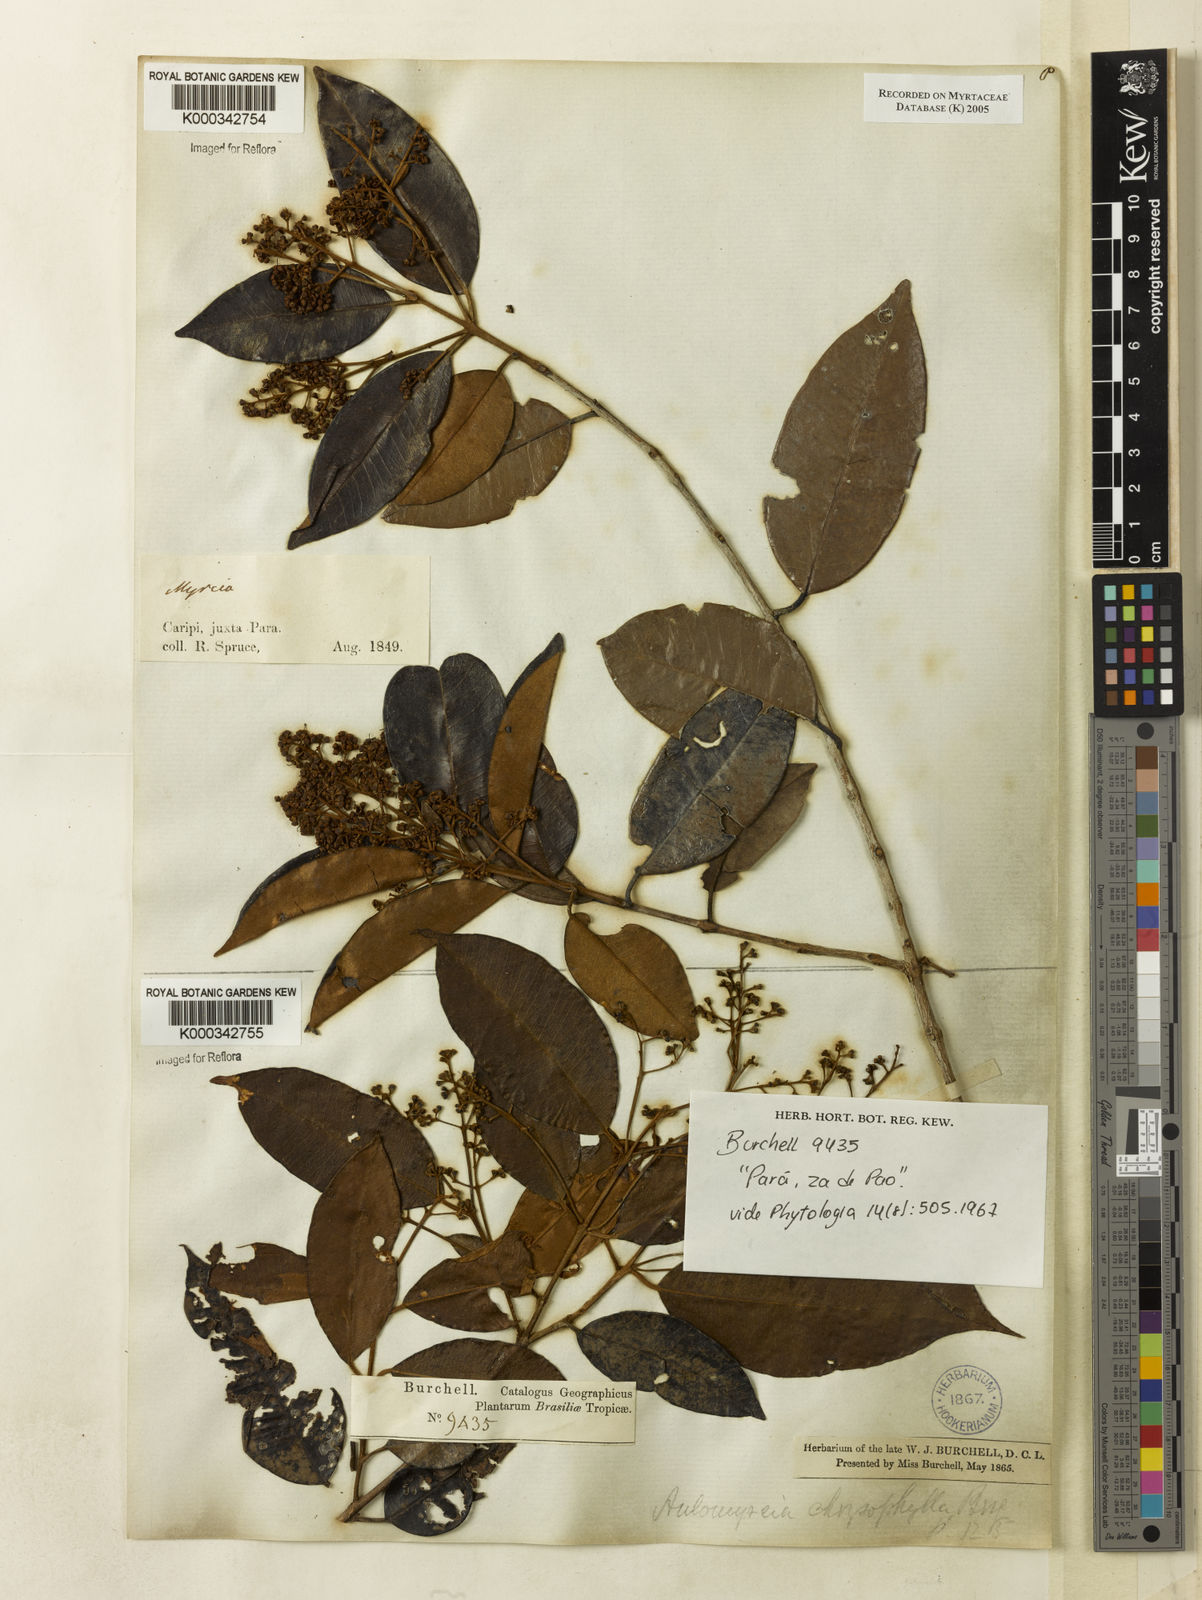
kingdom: Plantae
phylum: Tracheophyta
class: Magnoliopsida
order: Myrtales
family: Myrtaceae
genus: Myrcia
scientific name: Myrcia cuprea
